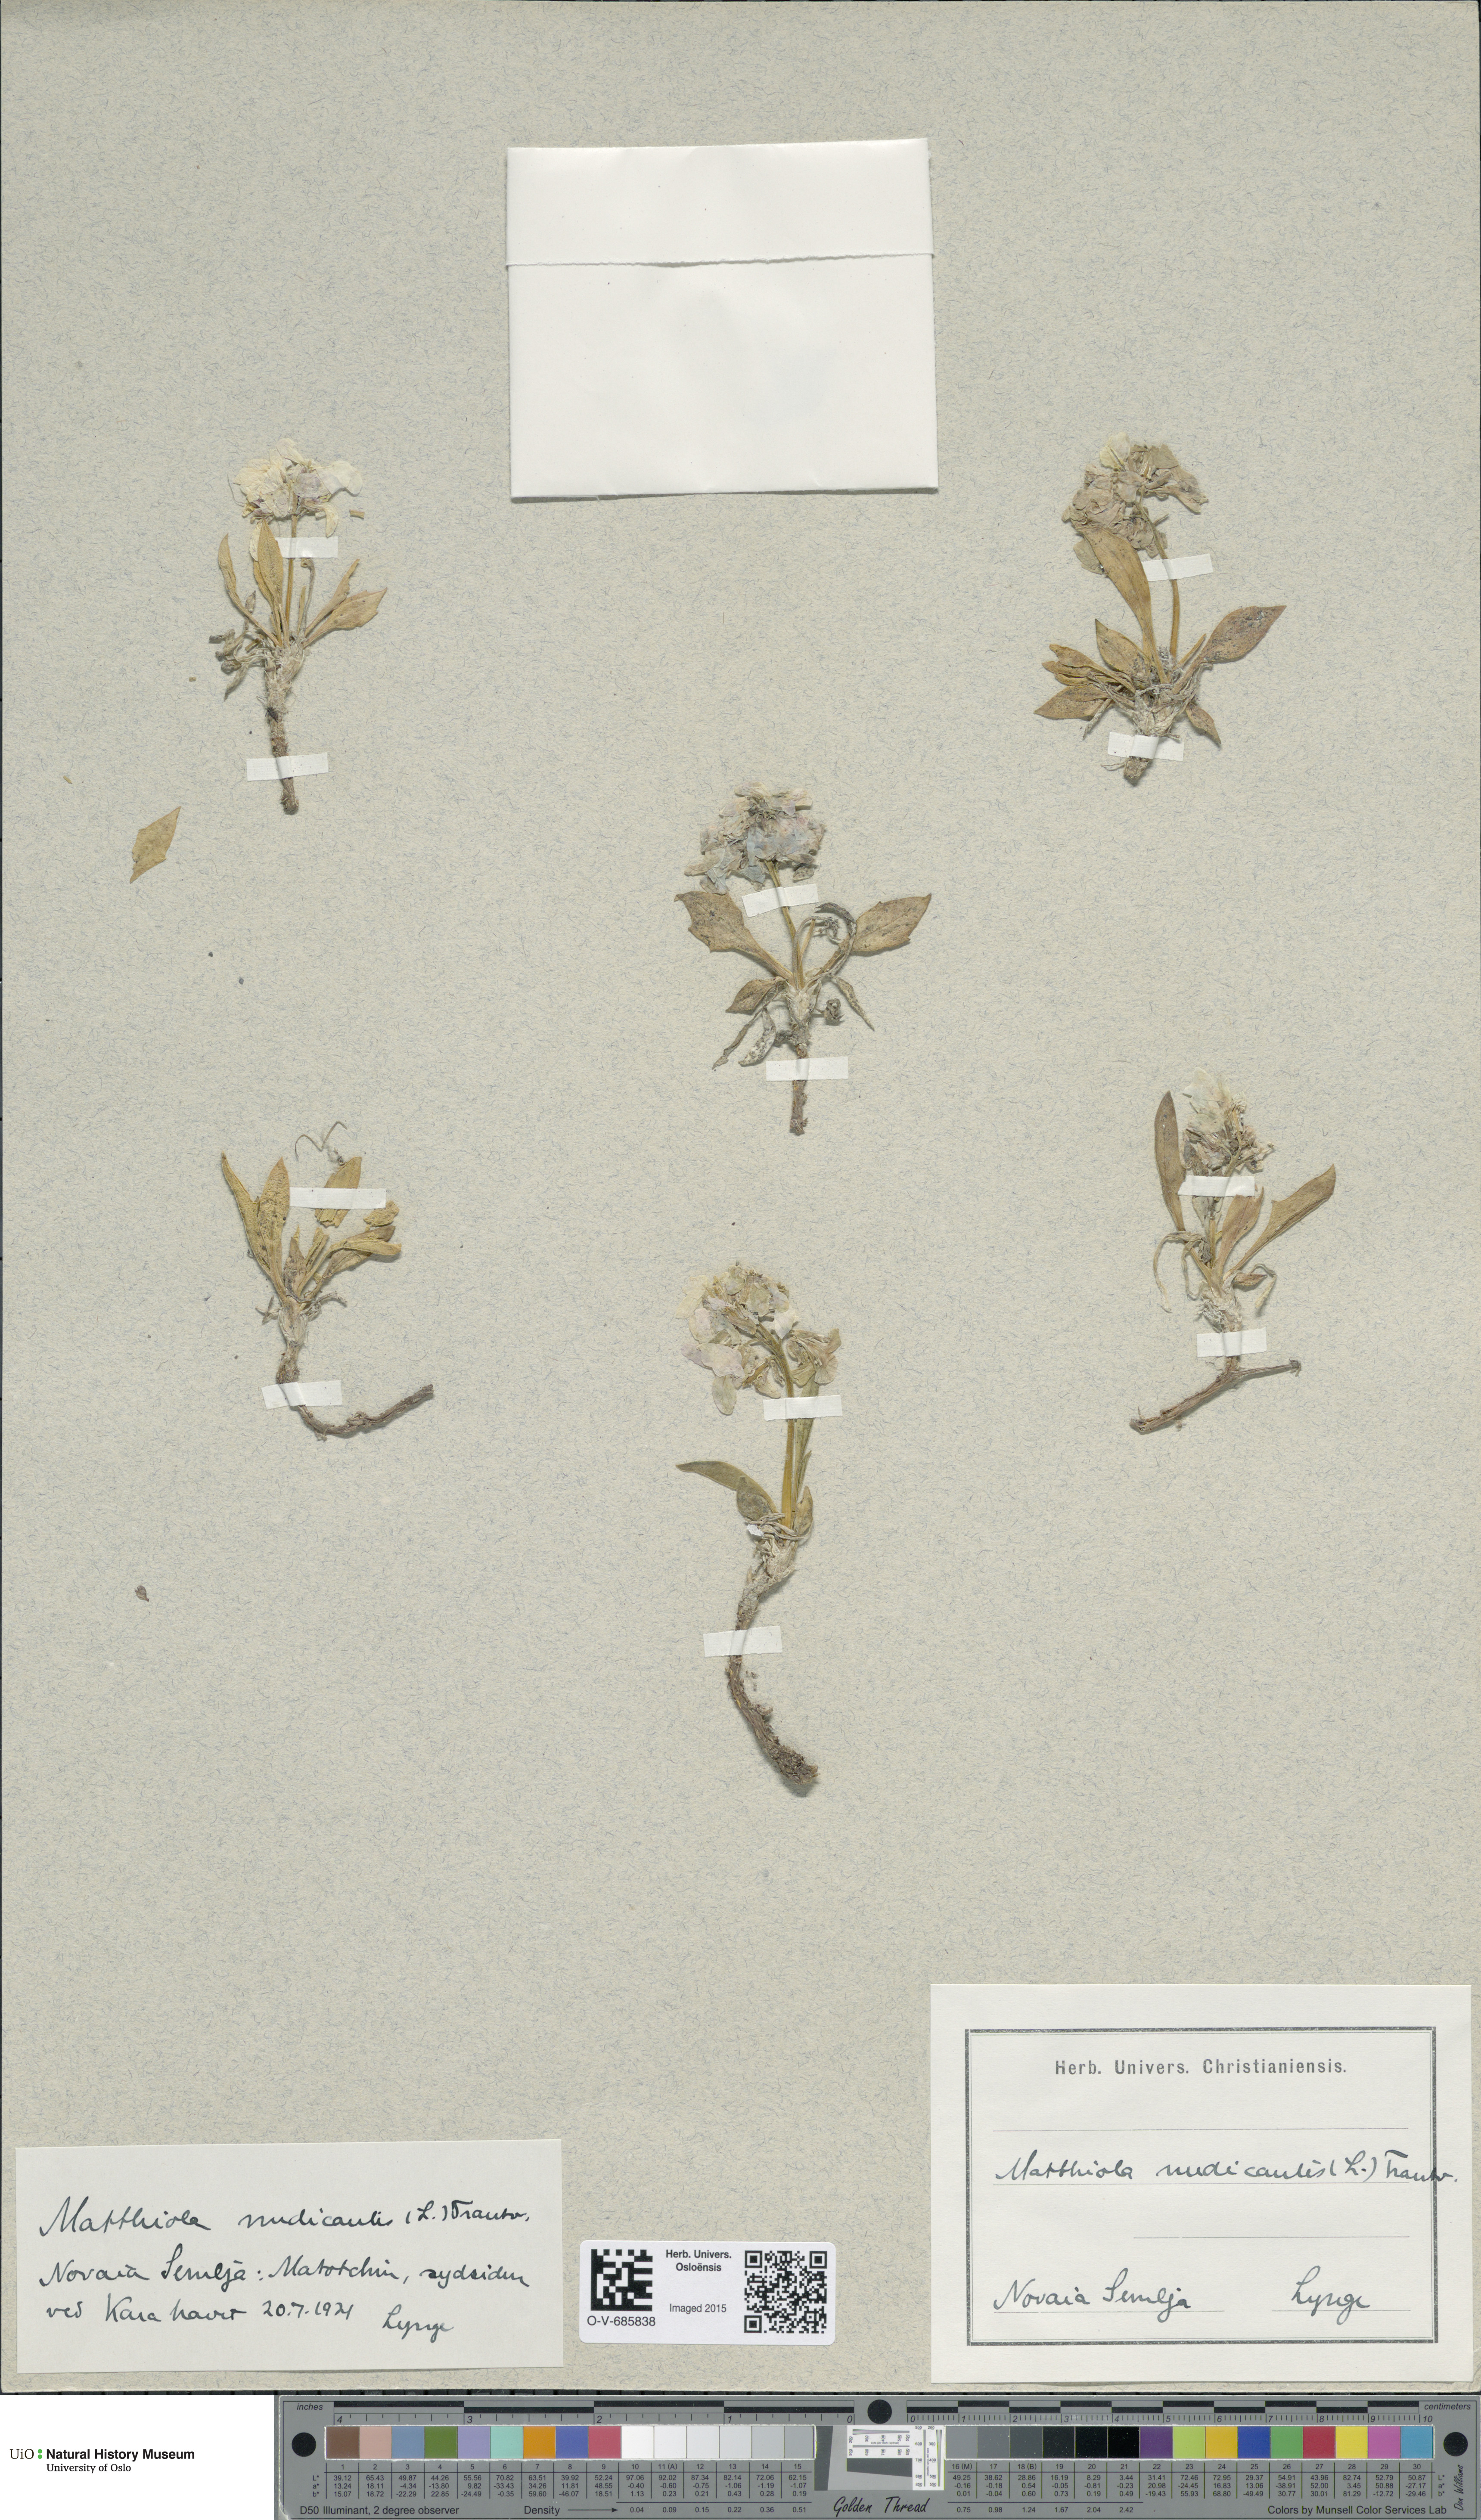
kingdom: Plantae
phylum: Tracheophyta
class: Magnoliopsida
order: Brassicales
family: Brassicaceae
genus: Parrya
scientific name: Parrya nudicaulis
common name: Naked-stemmed false wallflower
